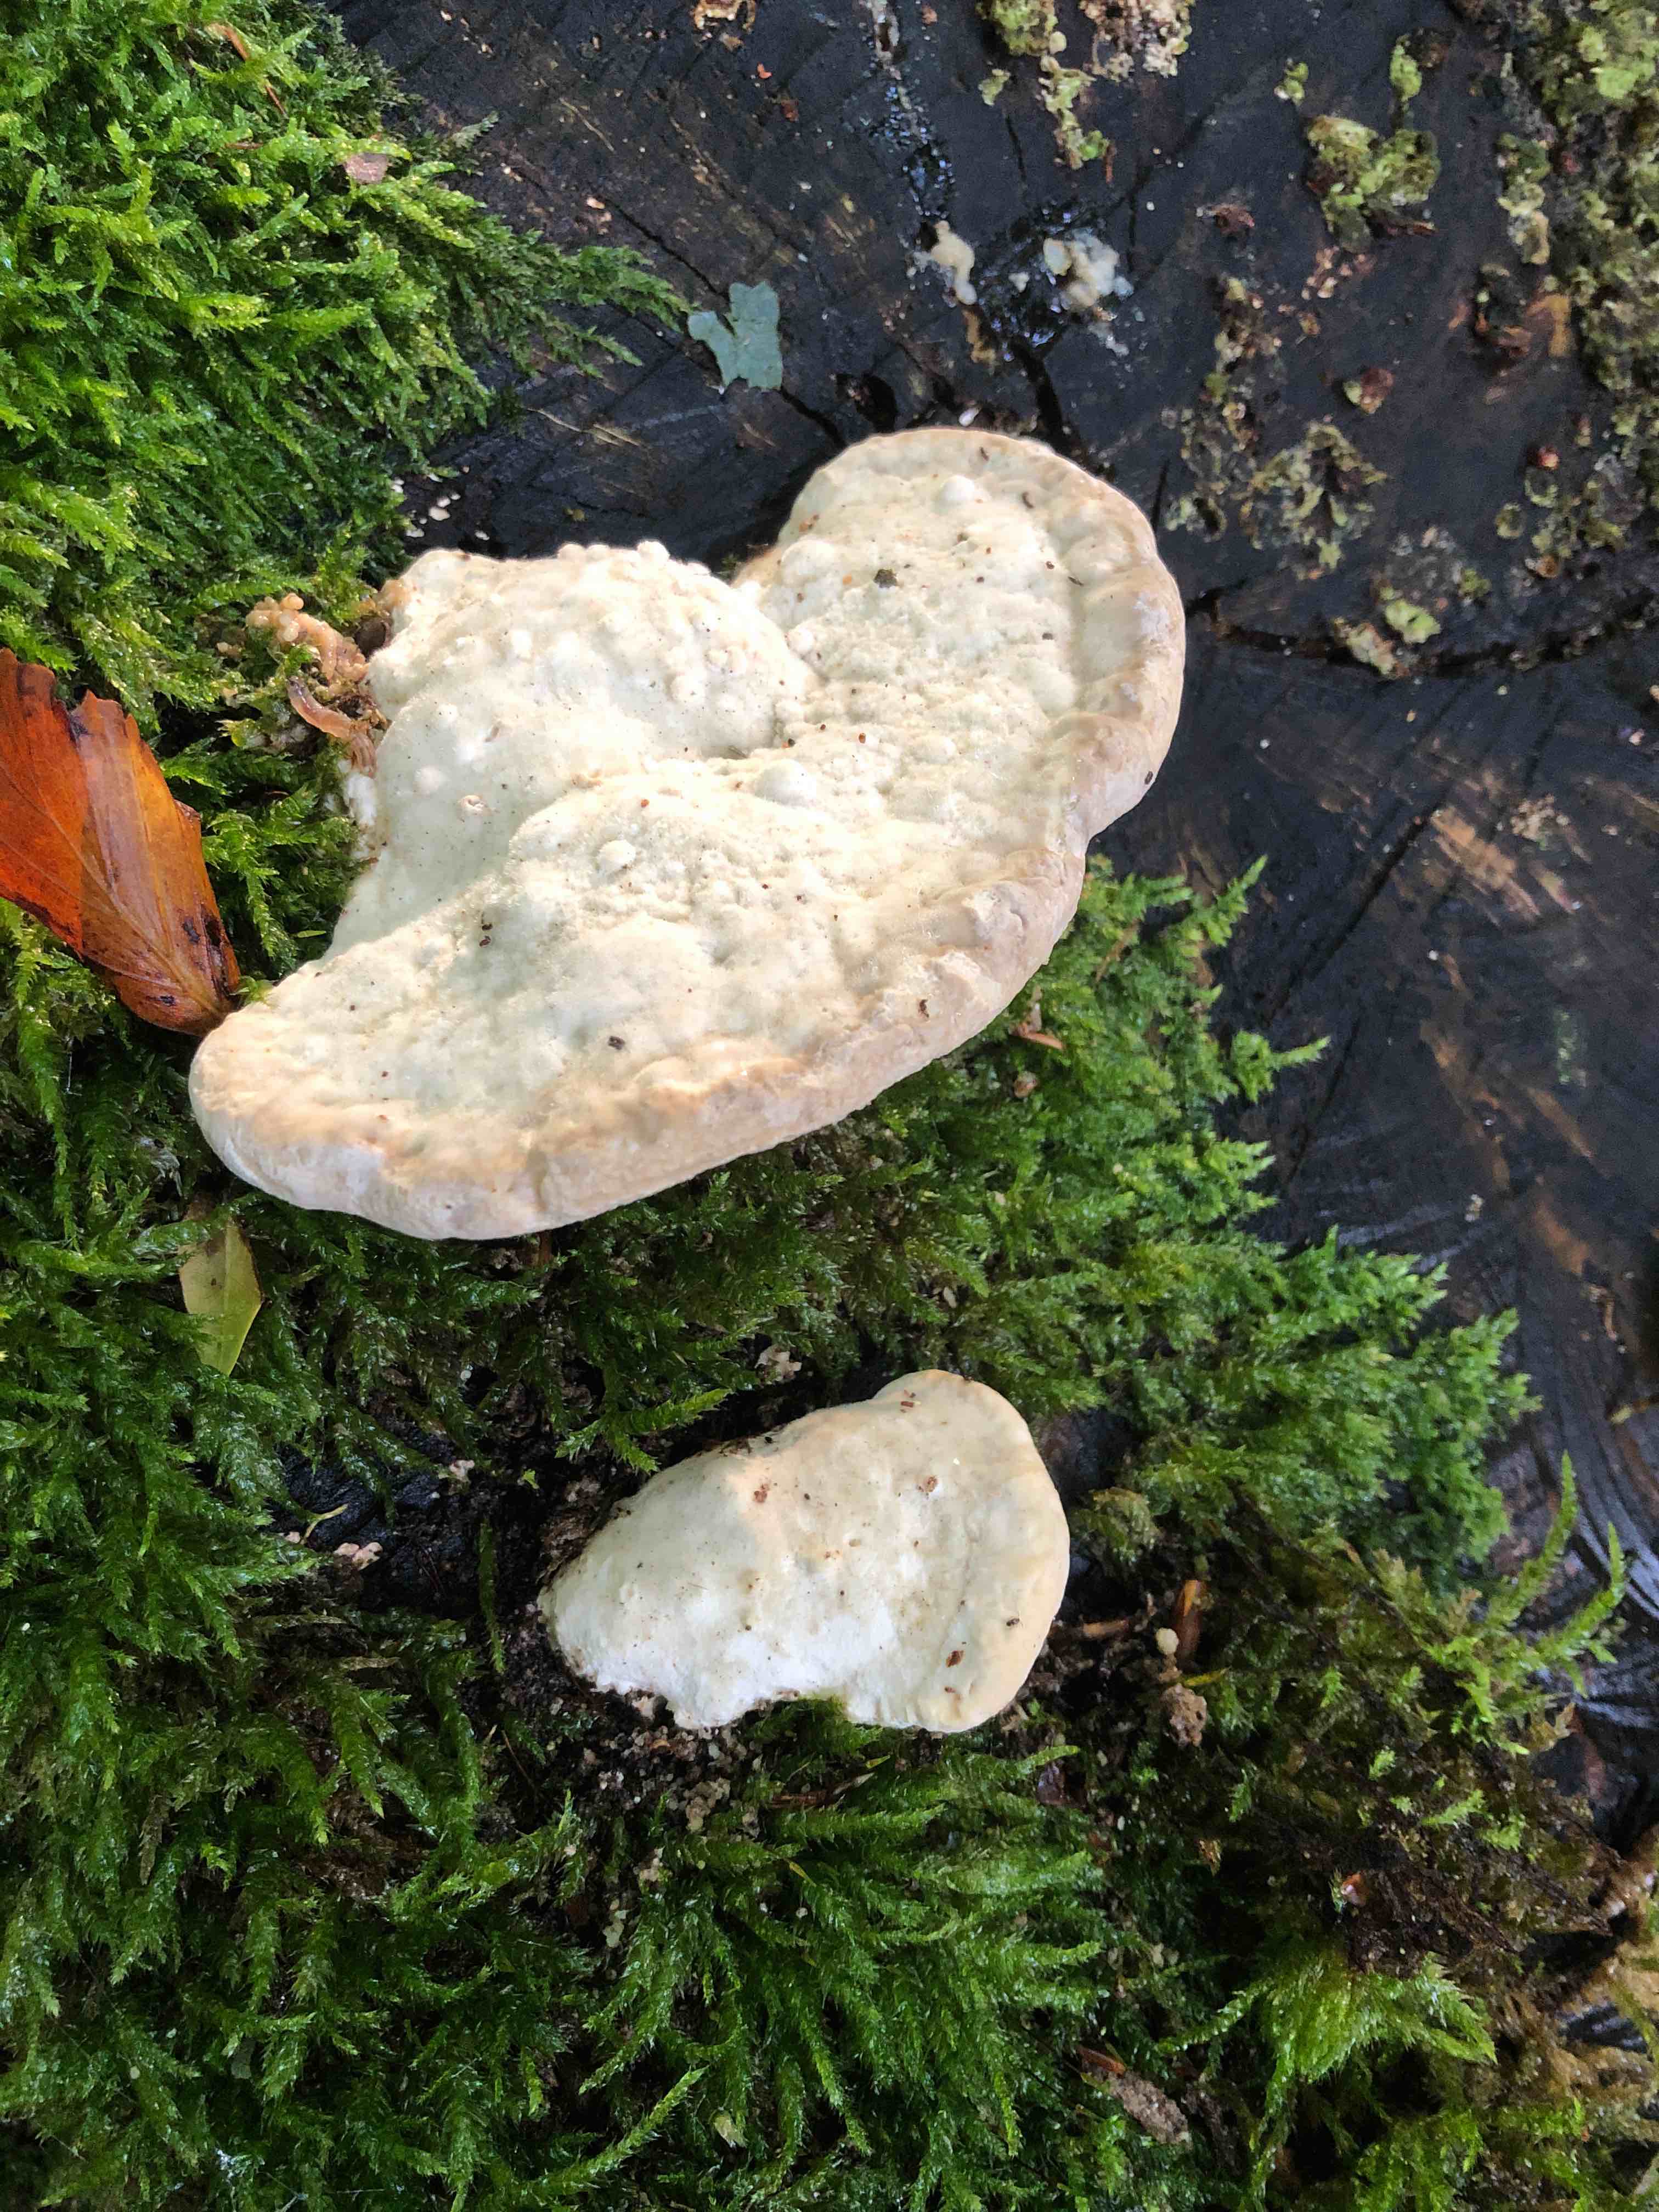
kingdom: Fungi
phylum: Basidiomycota
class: Agaricomycetes
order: Polyporales
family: Polyporaceae
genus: Trametes
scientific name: Trametes gibbosa
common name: puklet læderporesvamp
